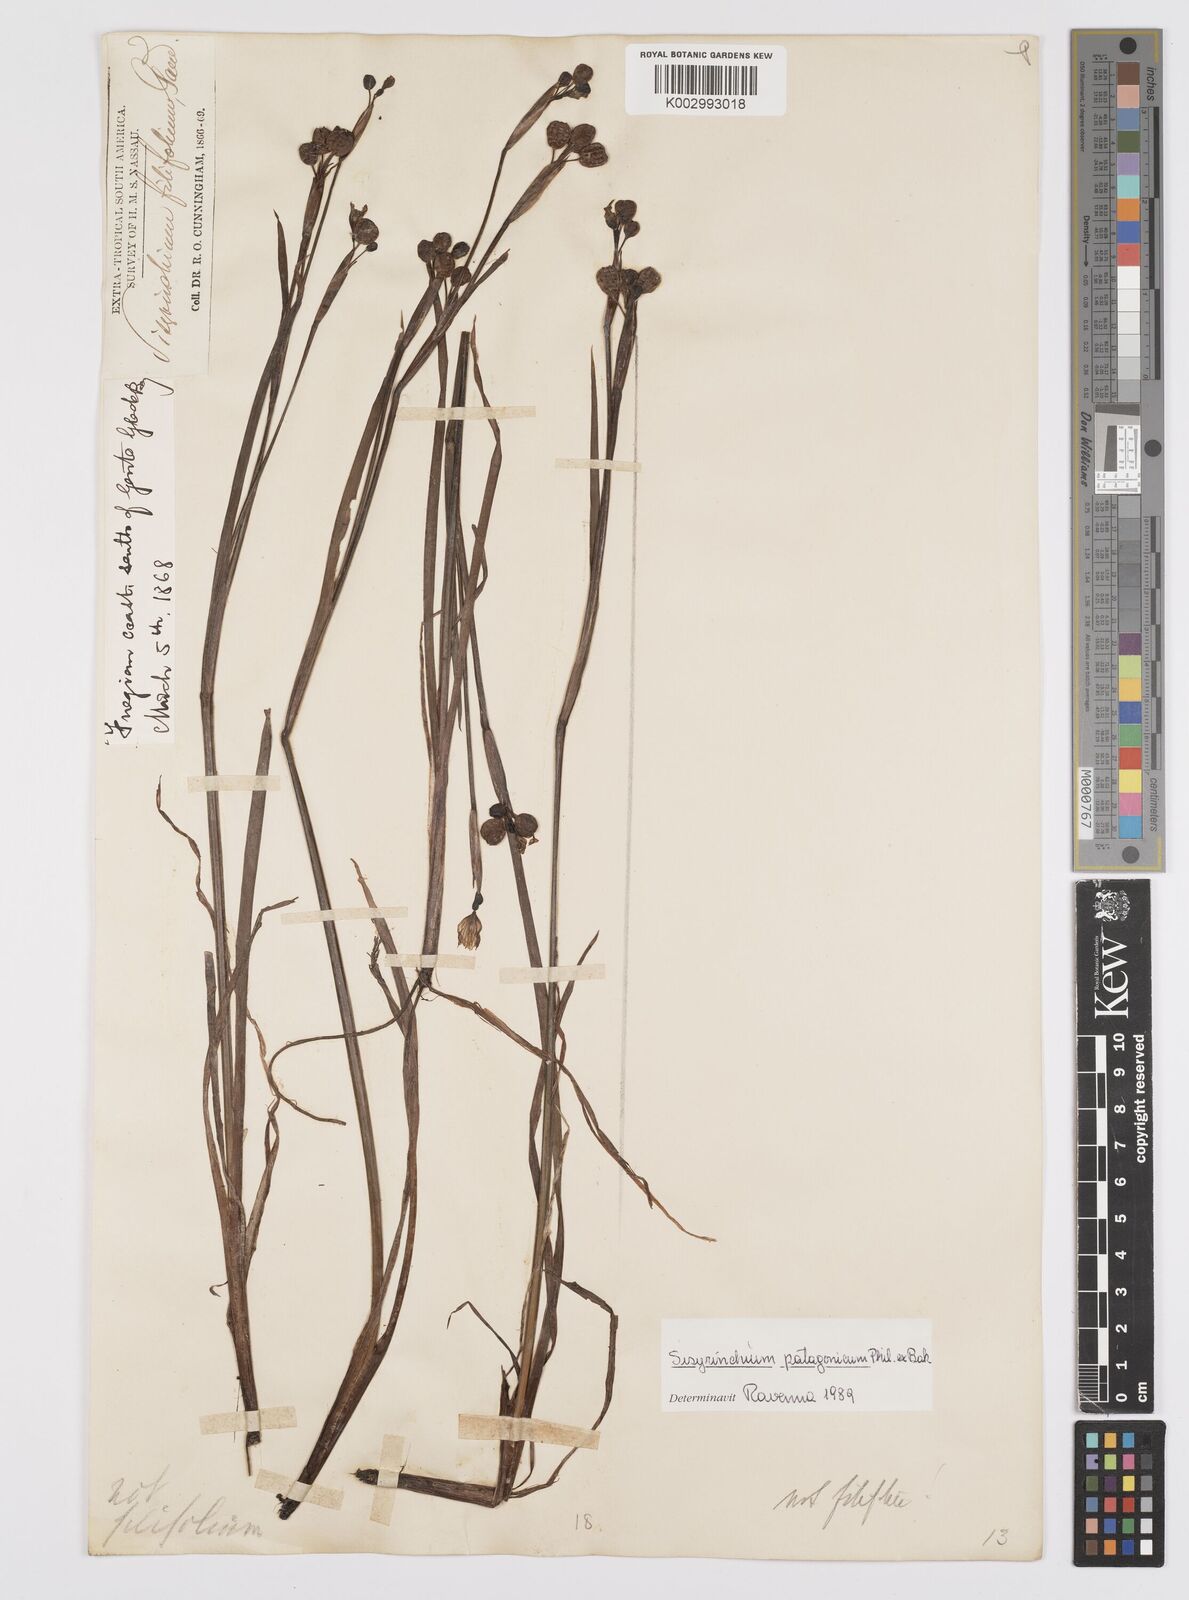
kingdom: Plantae
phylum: Tracheophyta
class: Liliopsida
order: Asparagales
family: Iridaceae
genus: Sisyrinchium
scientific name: Sisyrinchium
